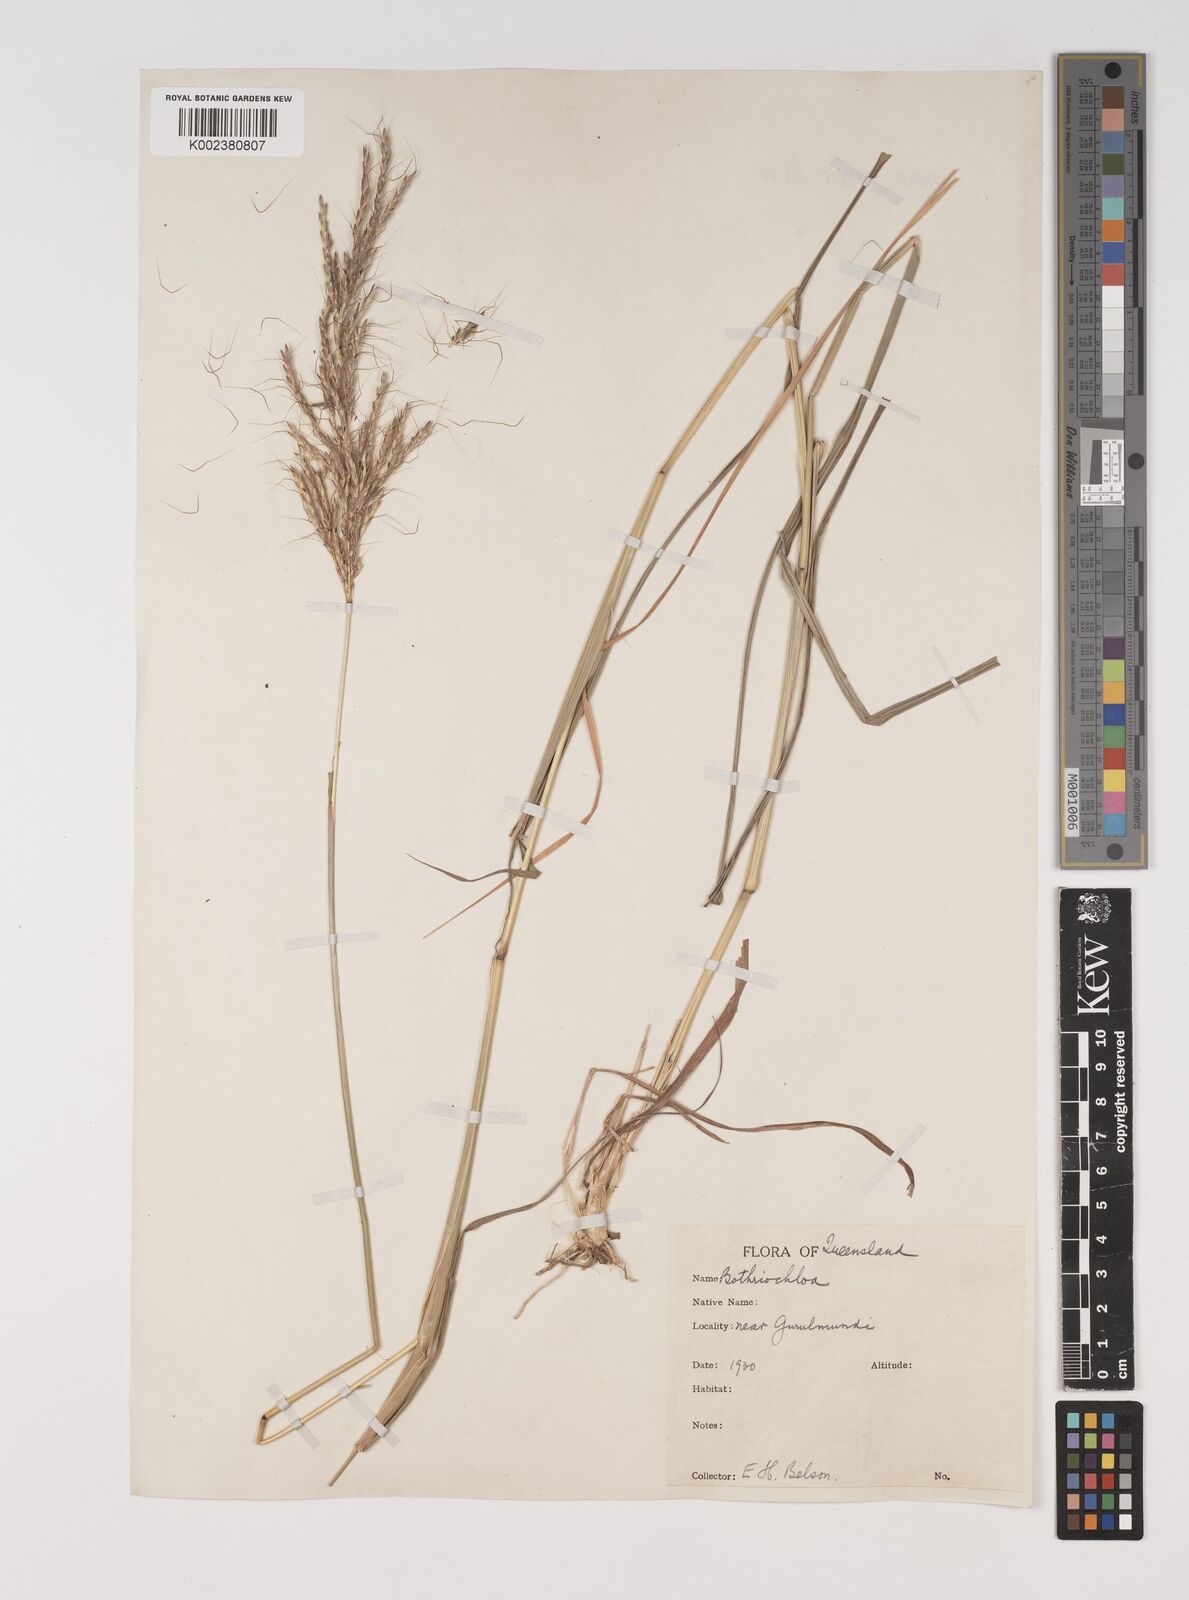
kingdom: Plantae
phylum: Tracheophyta
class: Liliopsida
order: Poales
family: Poaceae
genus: Bothriochloa
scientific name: Bothriochloa bladhii
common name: Caucasian bluestem
